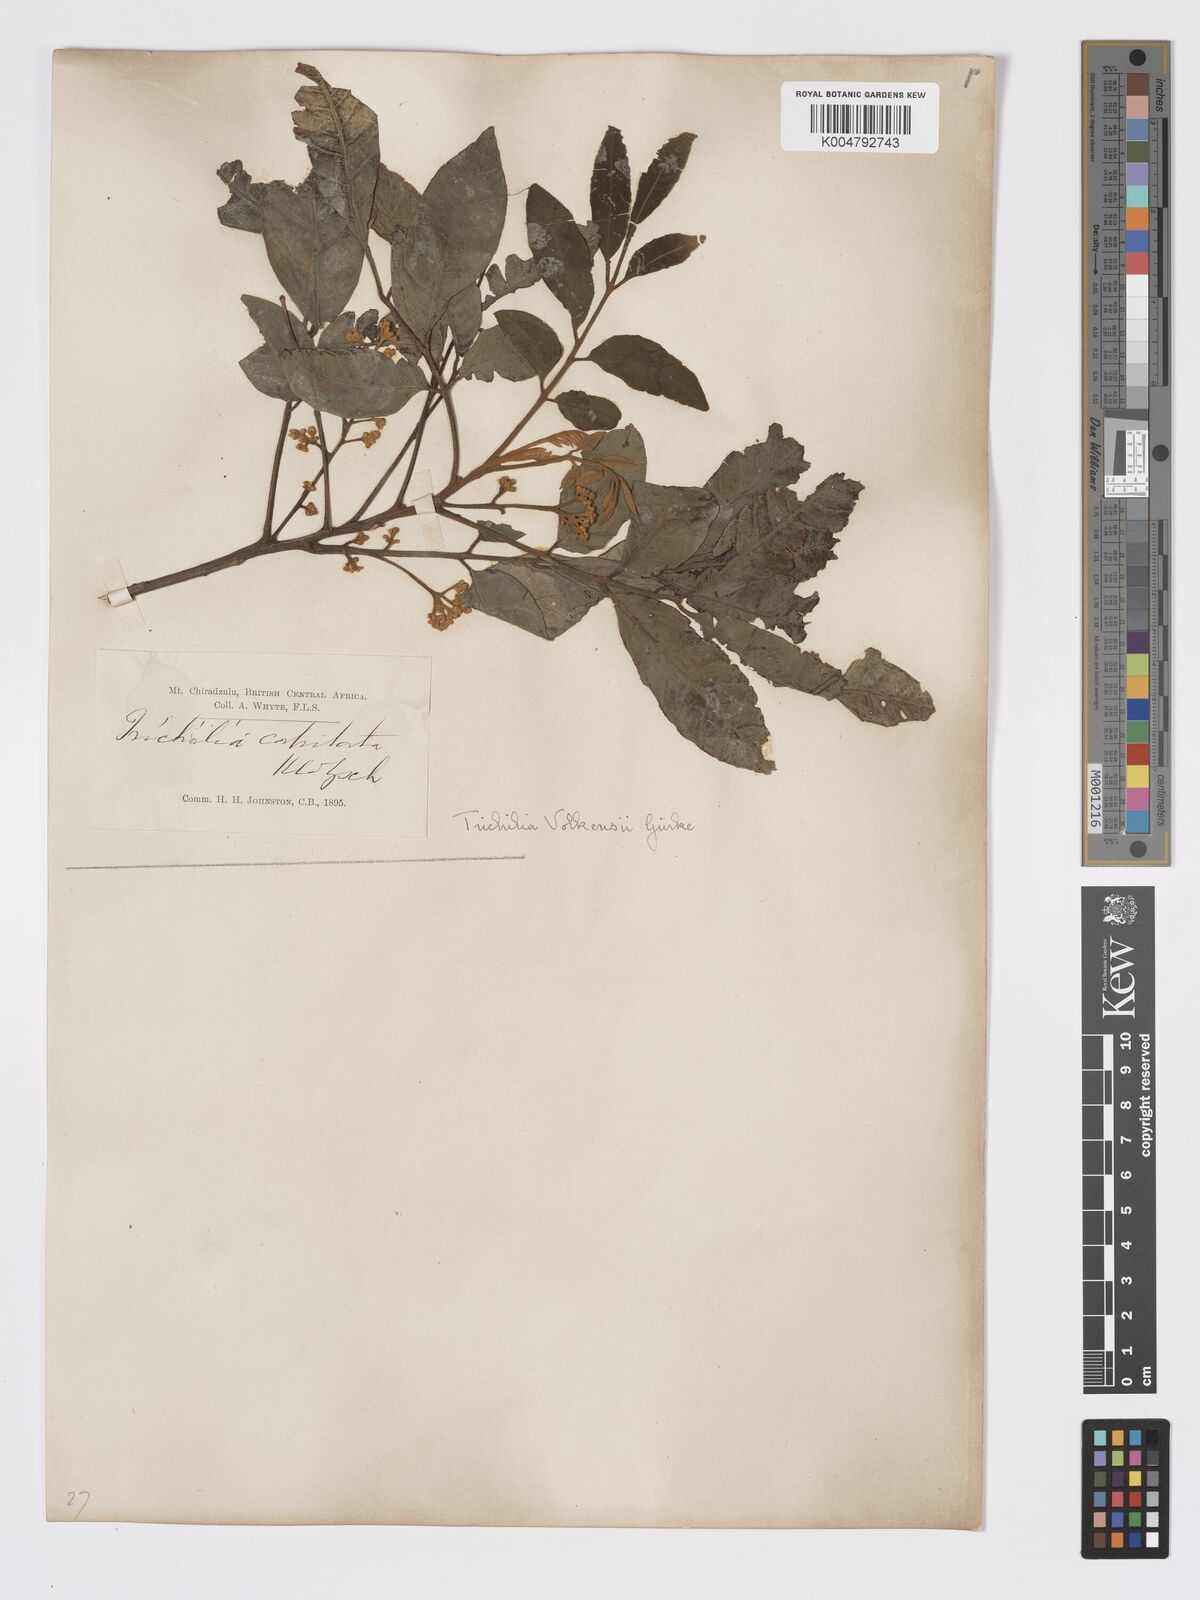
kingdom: Plantae
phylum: Tracheophyta
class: Magnoliopsida
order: Sapindales
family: Meliaceae
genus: Lepidotrichilia
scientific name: Lepidotrichilia volkensii
